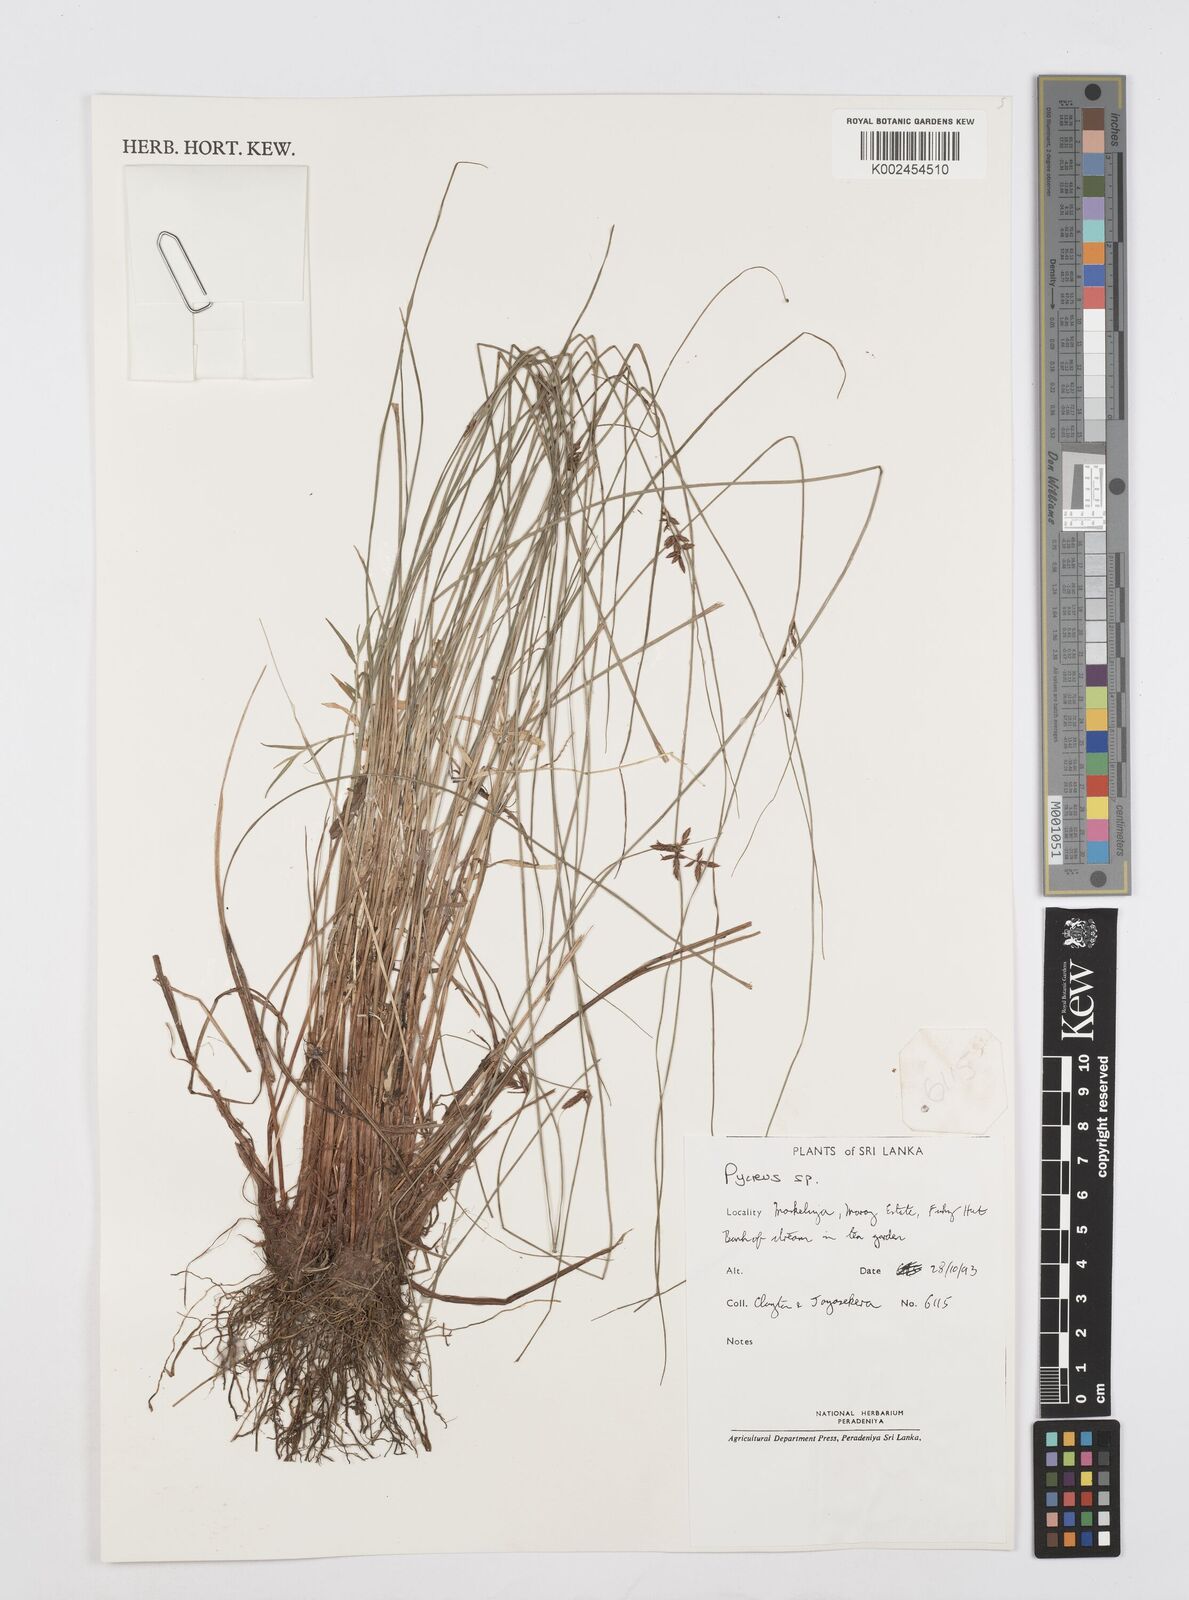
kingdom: Plantae
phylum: Tracheophyta
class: Liliopsida
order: Poales
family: Cyperaceae
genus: Cyperus
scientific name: Cyperus
